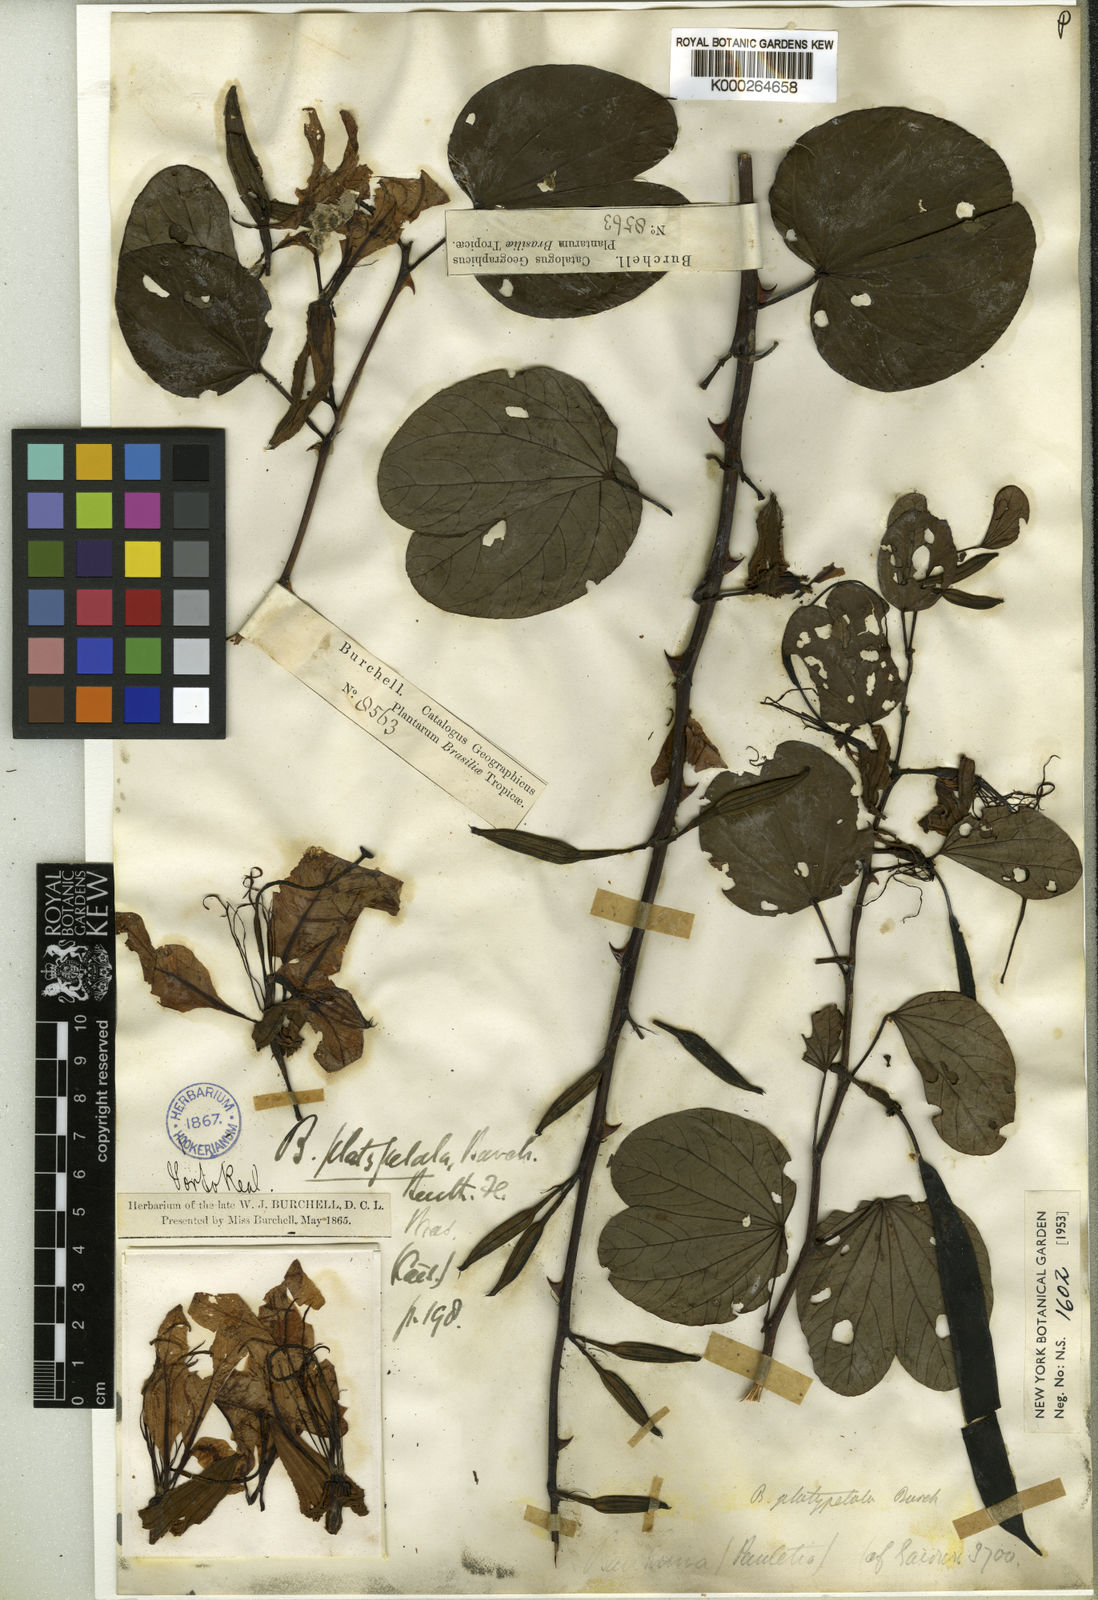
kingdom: Plantae
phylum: Tracheophyta
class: Magnoliopsida
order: Fabales
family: Fabaceae
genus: Bauhinia
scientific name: Bauhinia platypetala
